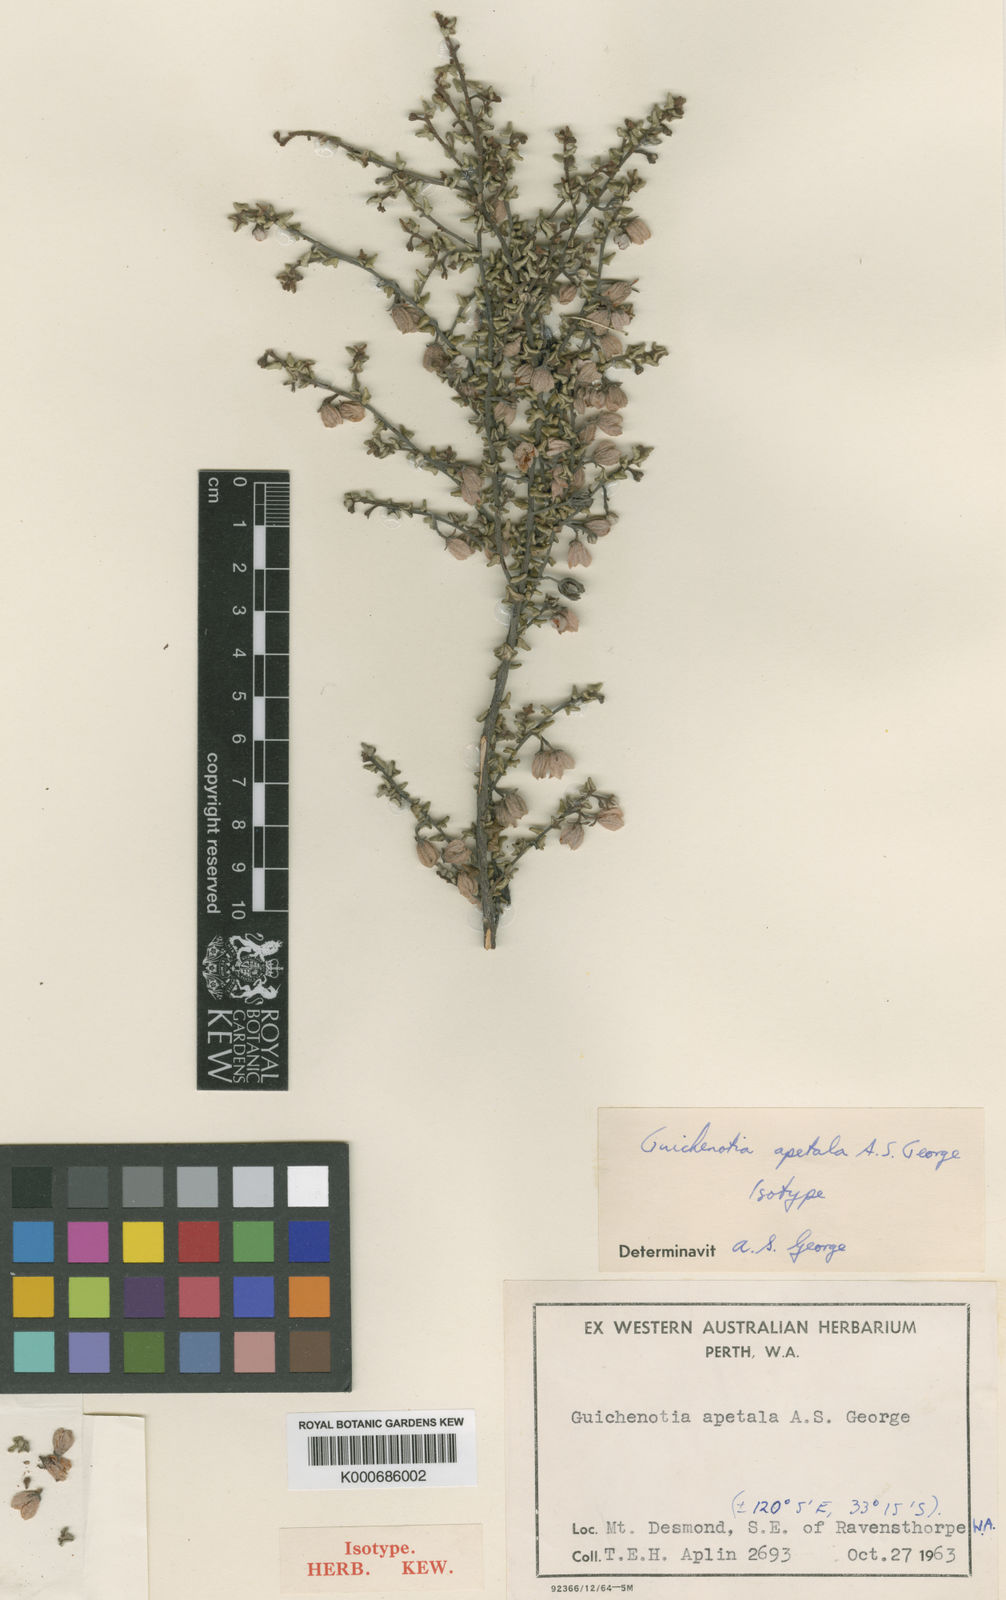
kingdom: Plantae
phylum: Tracheophyta
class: Magnoliopsida
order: Malvales
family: Malvaceae
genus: Guichenotia
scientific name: Guichenotia apetala
